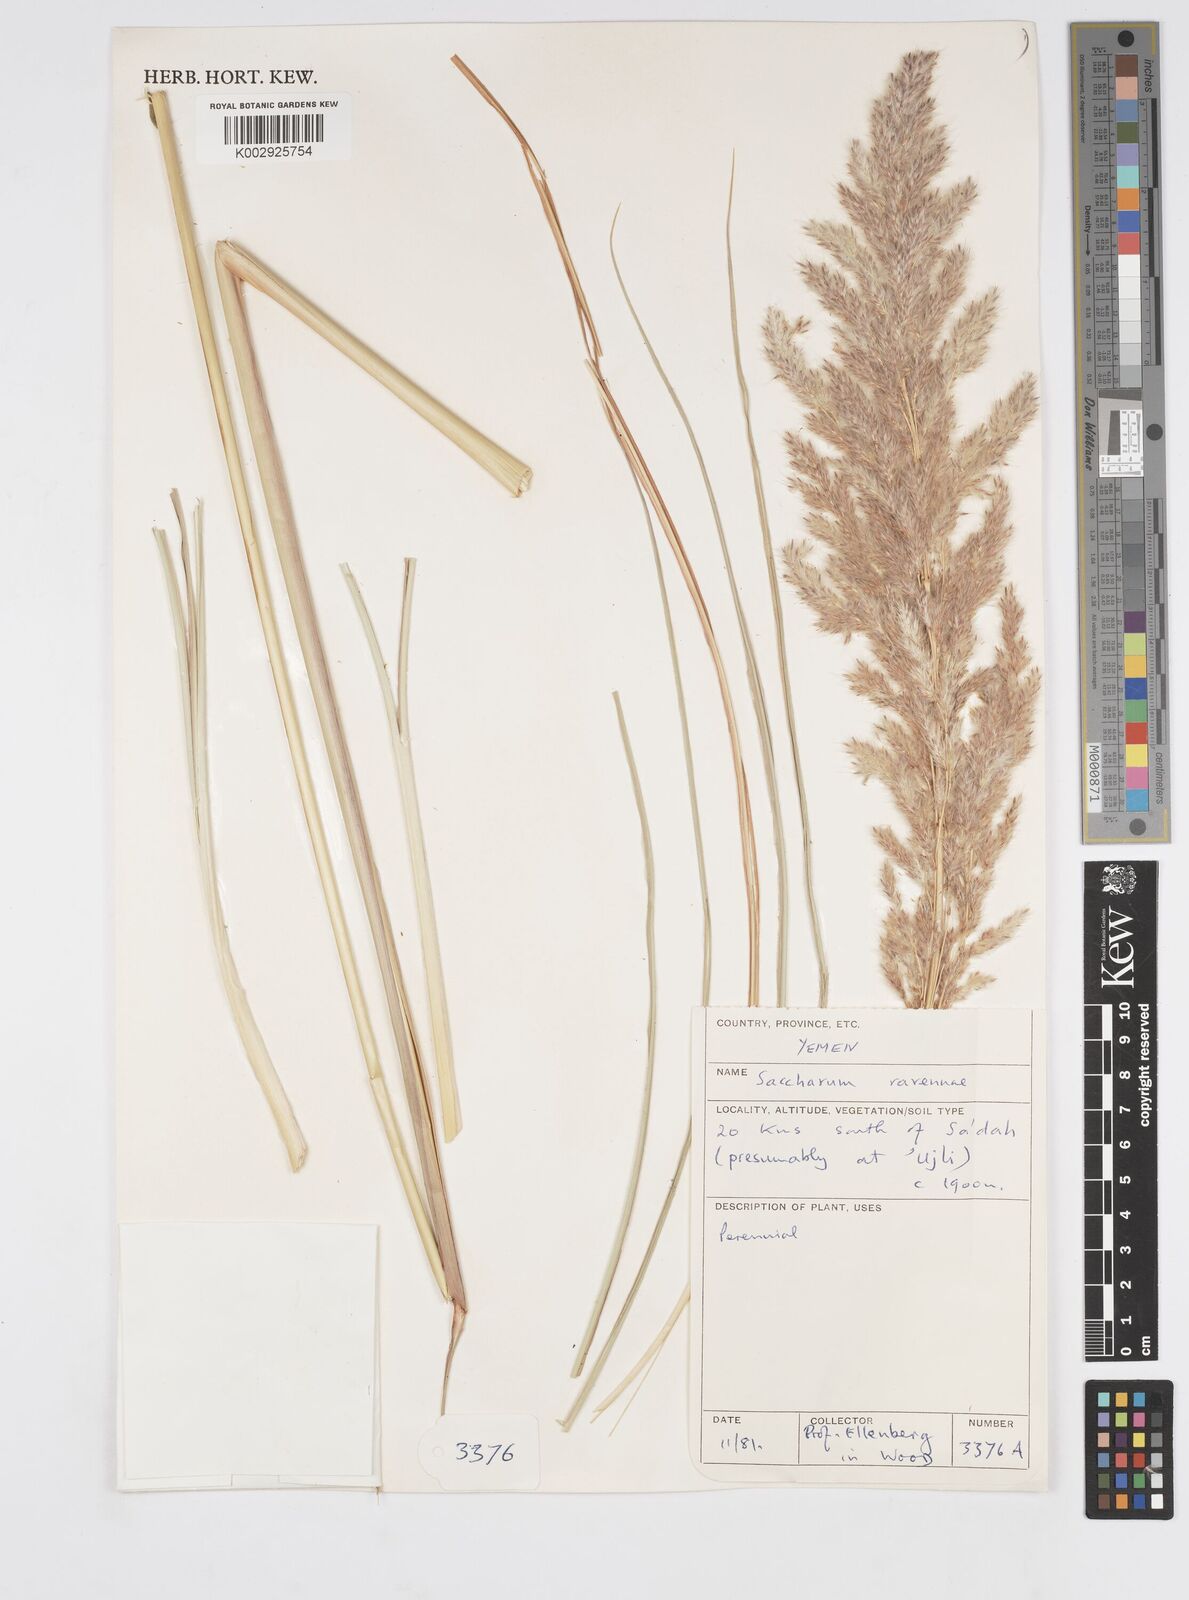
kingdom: Plantae
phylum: Tracheophyta
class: Liliopsida
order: Poales
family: Poaceae
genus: Tripidium
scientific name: Tripidium ravennae
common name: Ravenna grass
